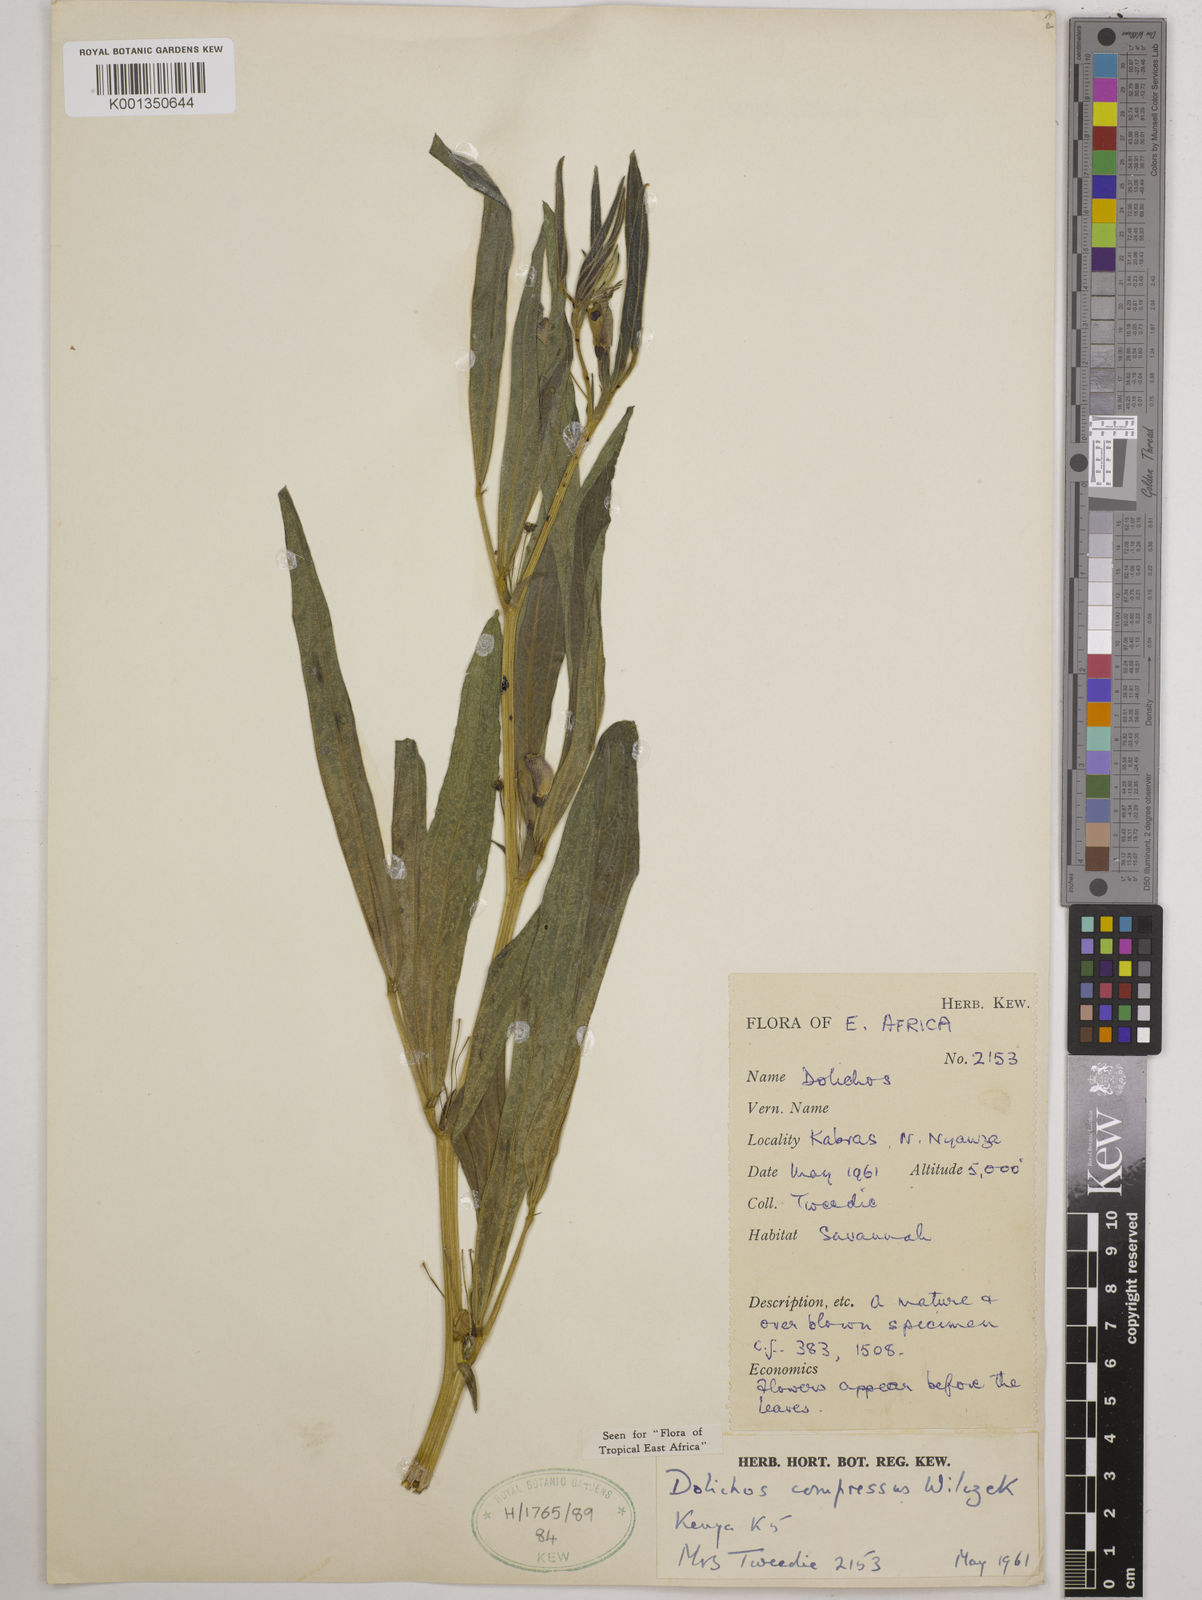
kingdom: Plantae
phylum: Tracheophyta
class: Magnoliopsida
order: Fabales
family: Fabaceae
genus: Dolichos
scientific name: Dolichos compressus
